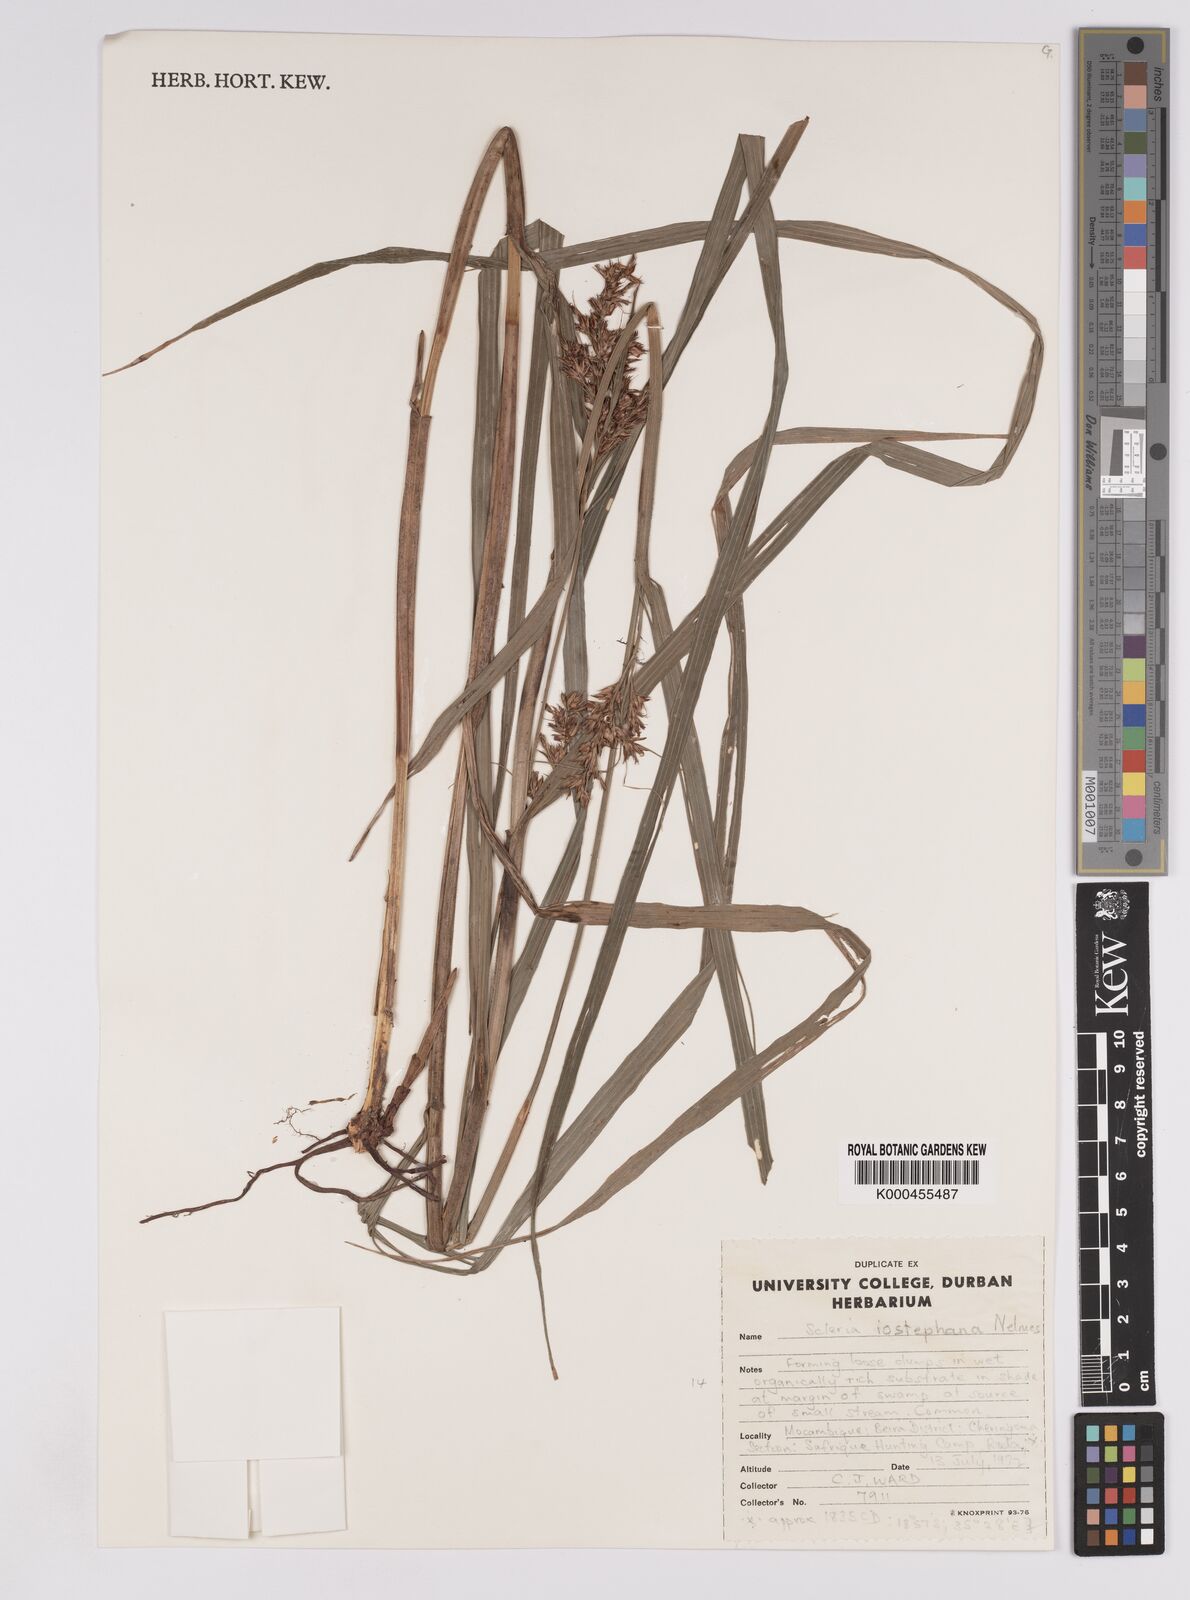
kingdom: Plantae
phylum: Tracheophyta
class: Liliopsida
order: Poales
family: Cyperaceae
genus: Scleria
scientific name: Scleria iostephana
